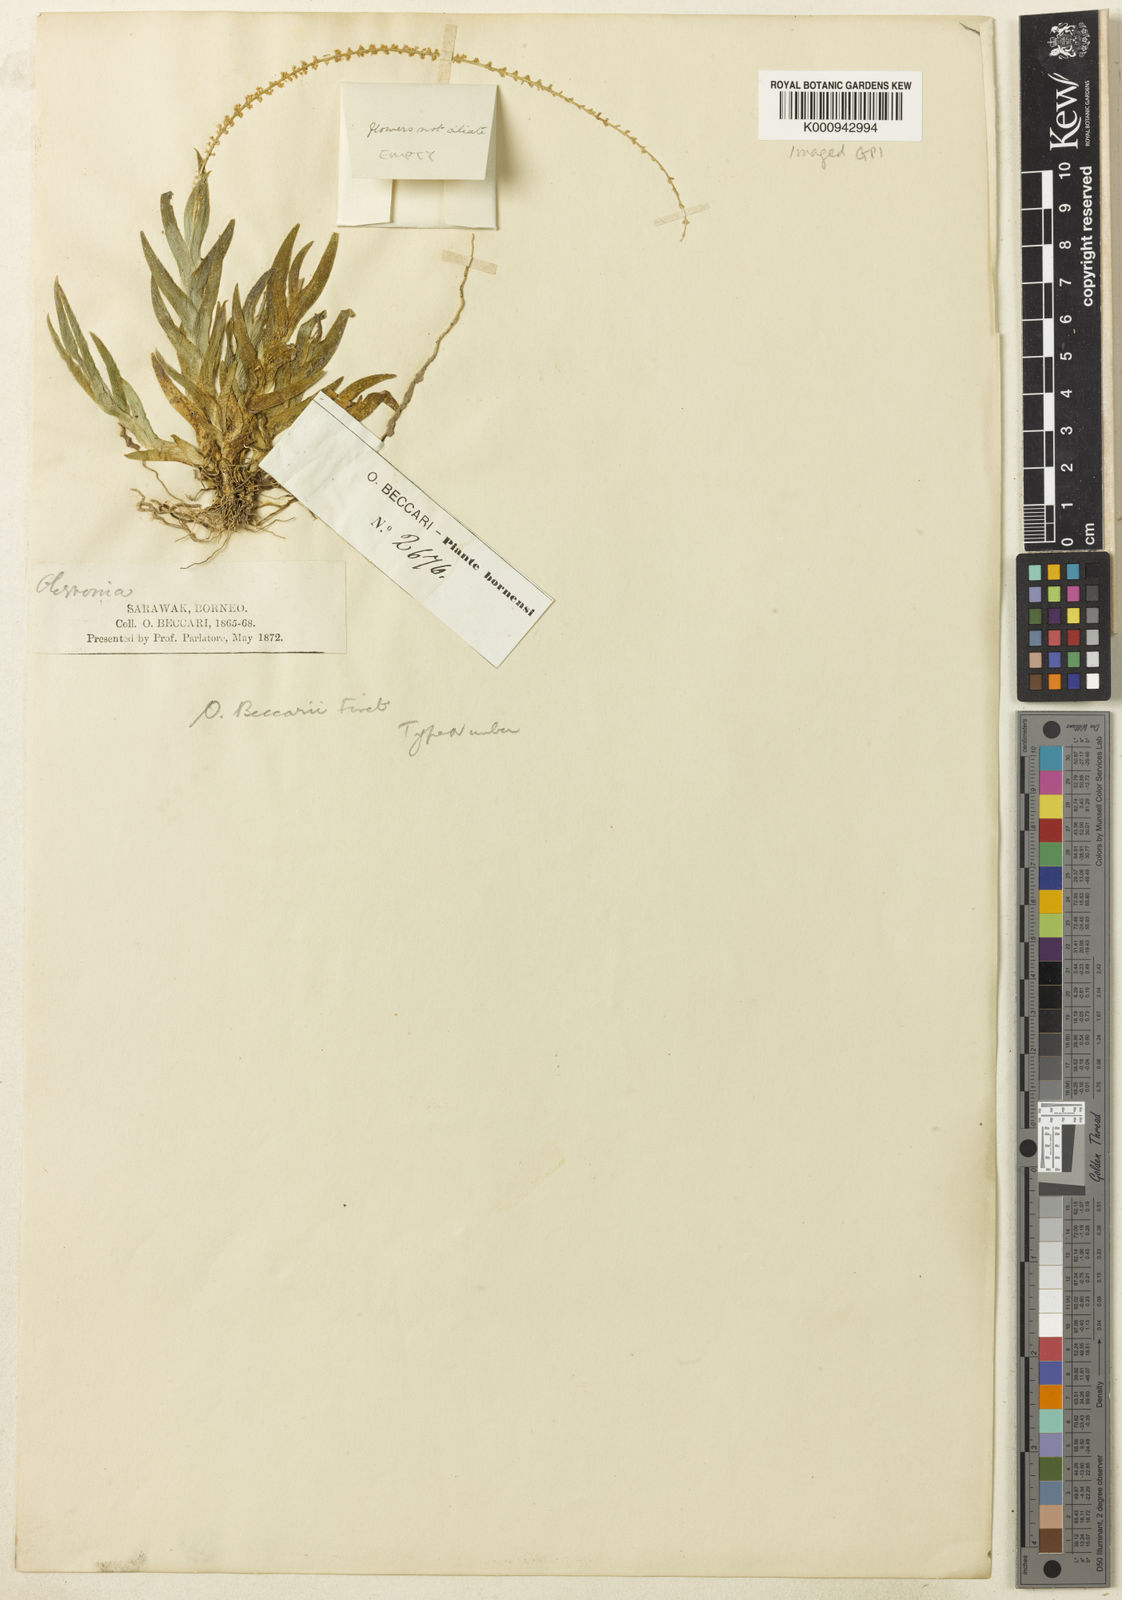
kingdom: Plantae
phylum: Tracheophyta
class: Liliopsida
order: Asparagales
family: Orchidaceae
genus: Oberonia
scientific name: Oberonia beccarii
